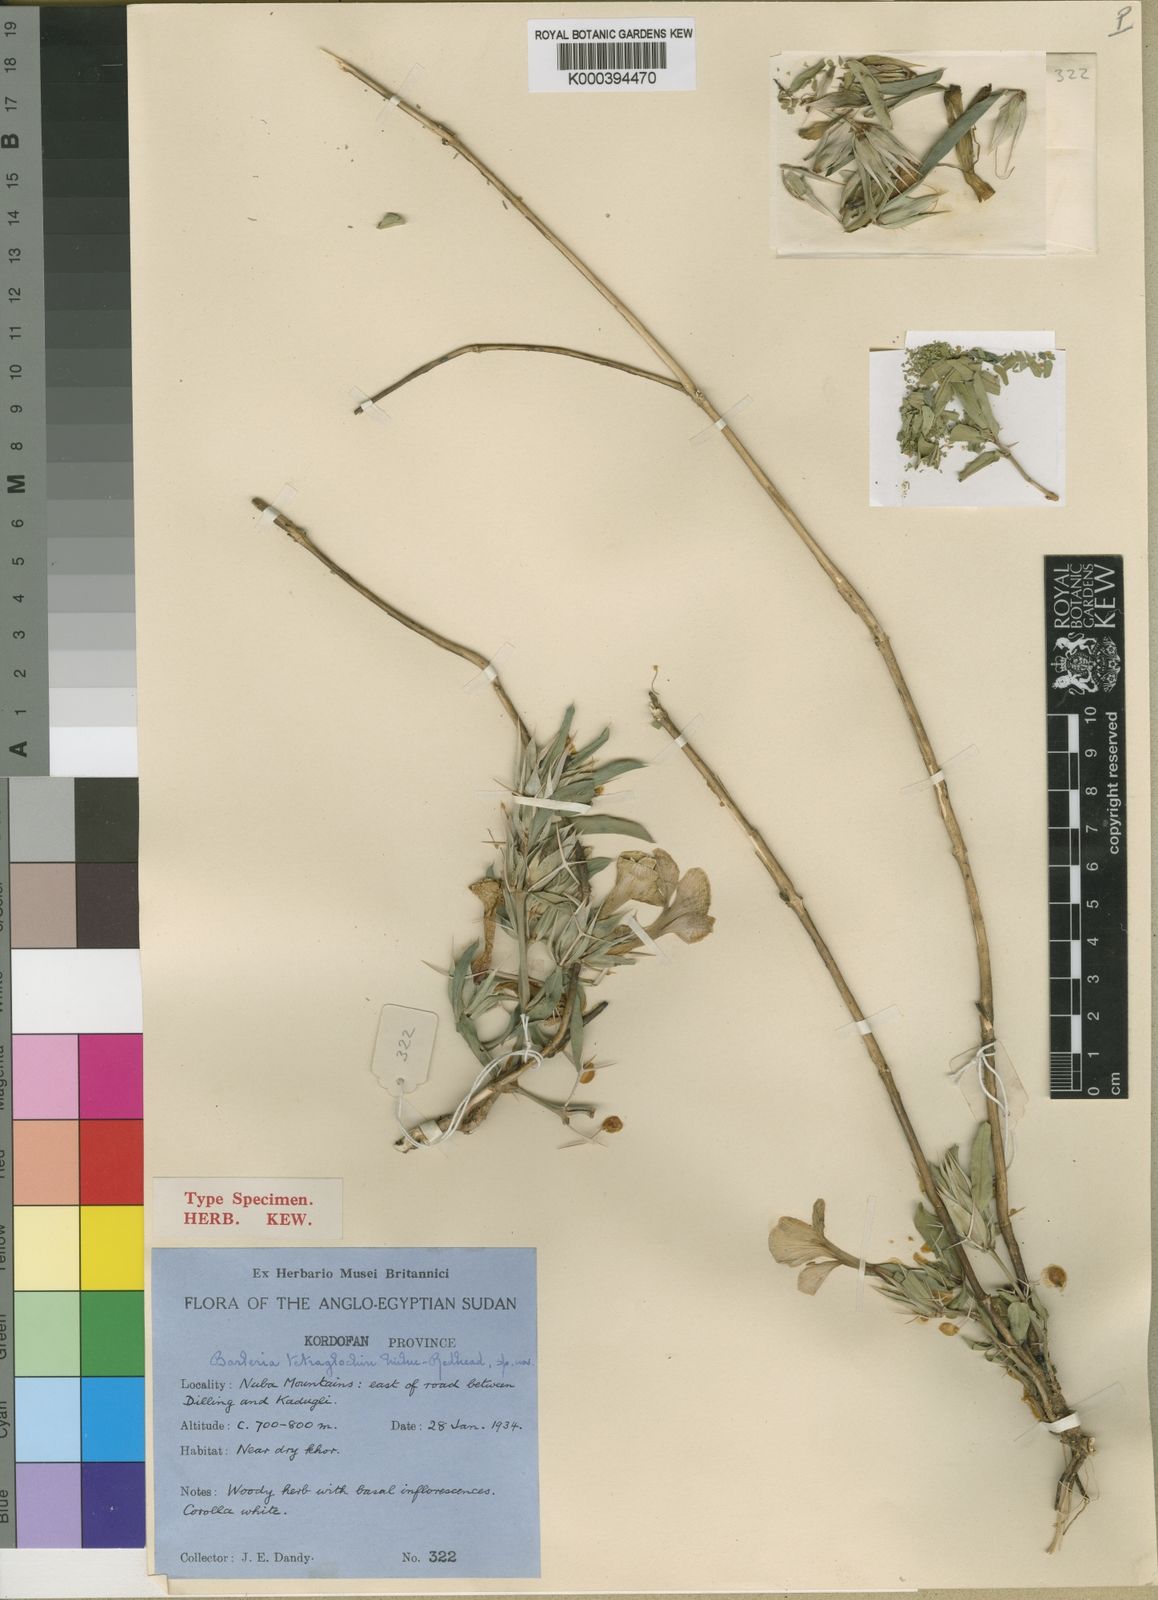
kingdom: Plantae
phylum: Tracheophyta
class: Magnoliopsida
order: Lamiales
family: Acanthaceae
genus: Barleria
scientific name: Barleria linearifolia
